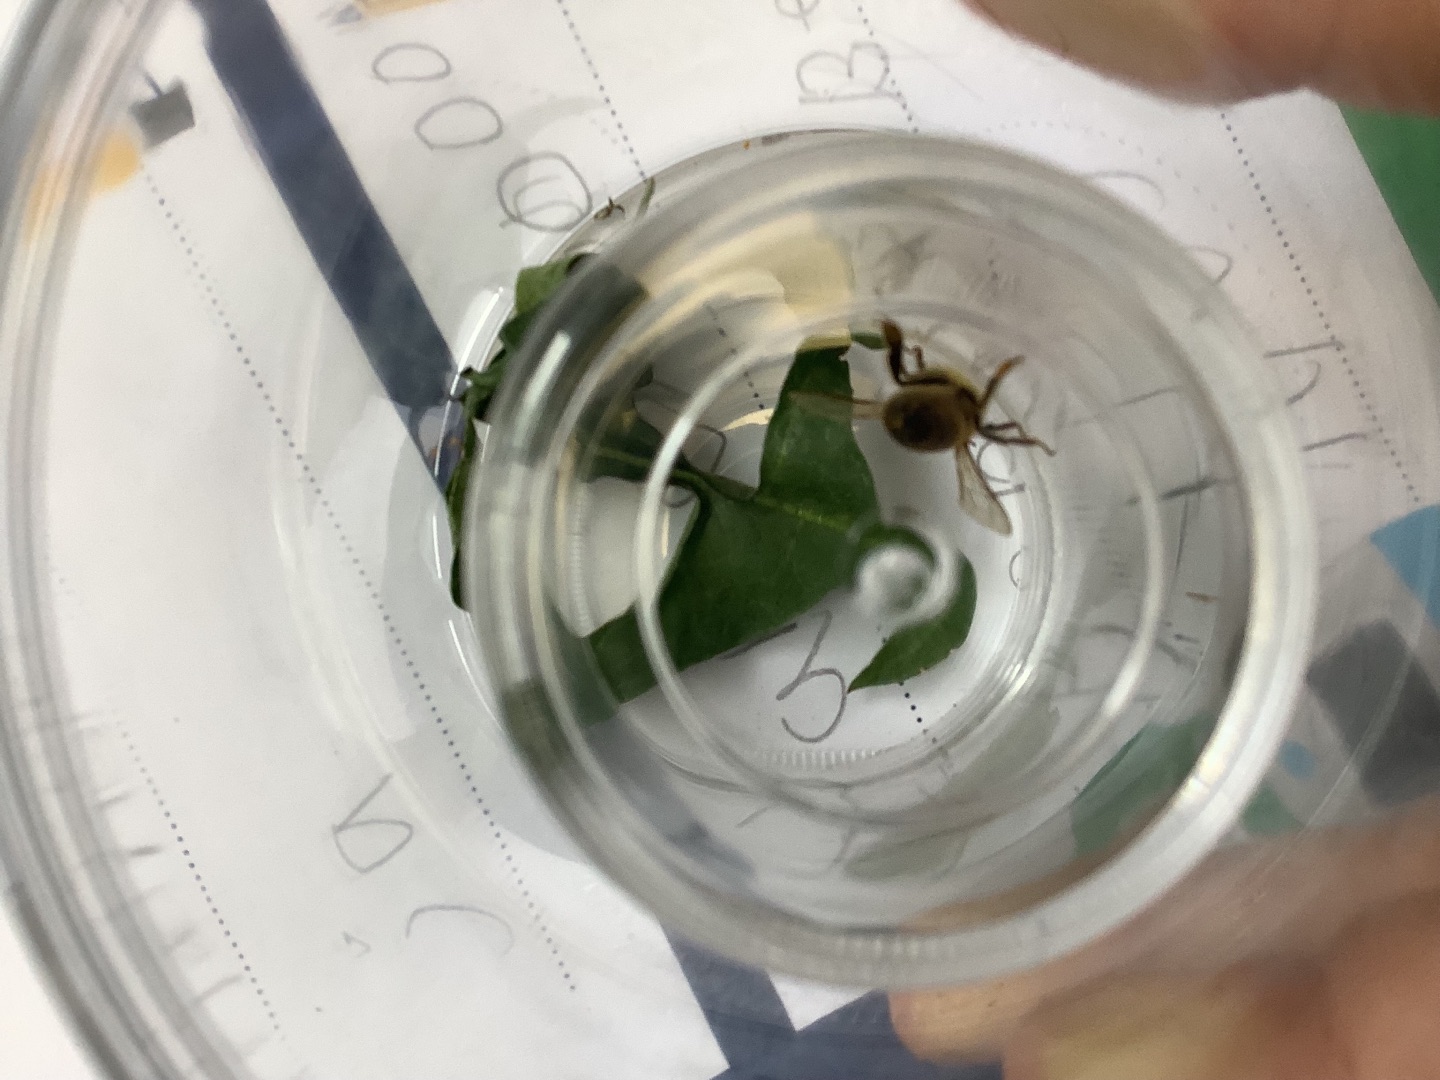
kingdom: Animalia
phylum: Arthropoda
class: Insecta
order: Hymenoptera
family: Apidae
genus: Apis
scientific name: Apis mellifera
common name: Honningbi
